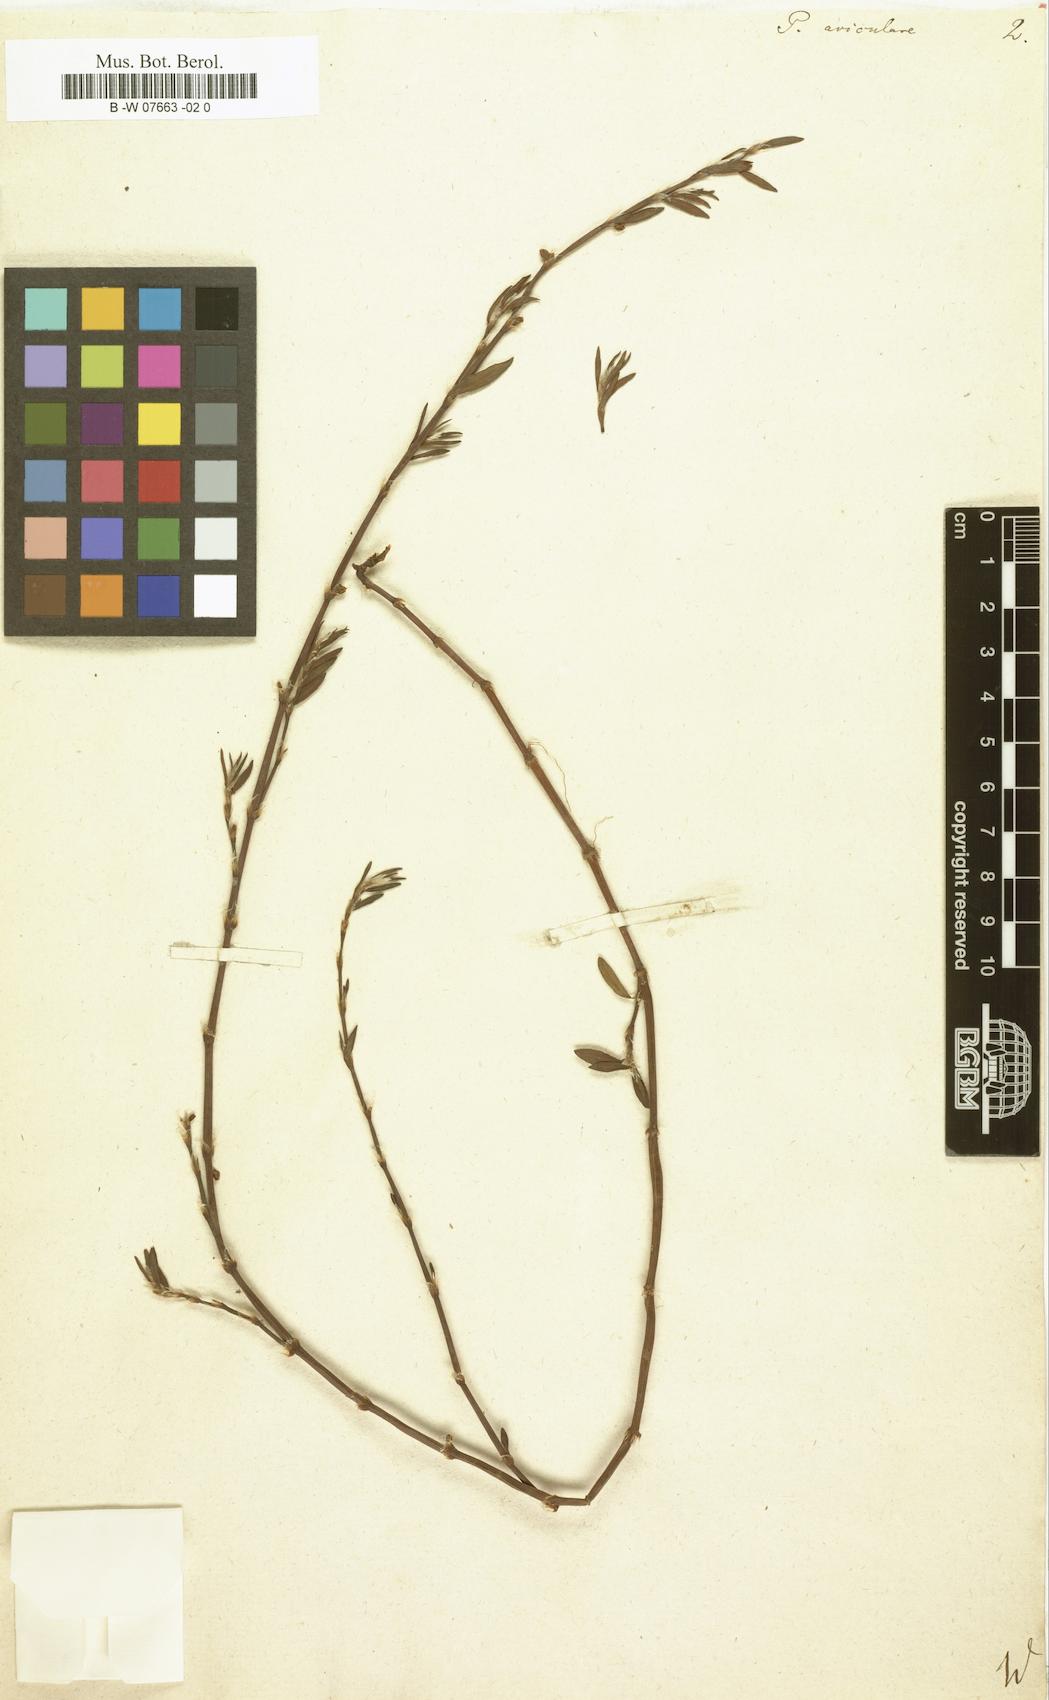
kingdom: Plantae
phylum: Tracheophyta
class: Magnoliopsida
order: Caryophyllales
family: Polygonaceae
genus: Polygonum
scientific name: Polygonum aviculare
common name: Prostrate knotweed
